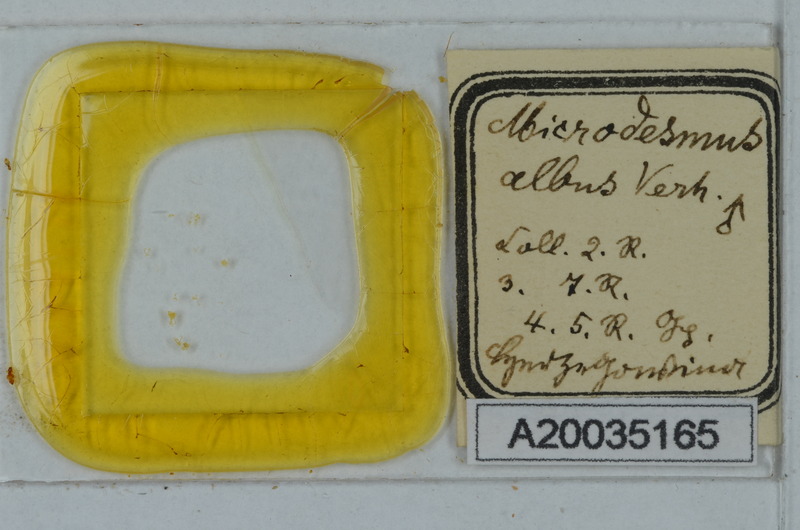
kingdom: Animalia
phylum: Arthropoda
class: Diplopoda
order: Polydesmida
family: Paradoxosomatidae
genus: Metonomastus
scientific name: Metonomastus albus
